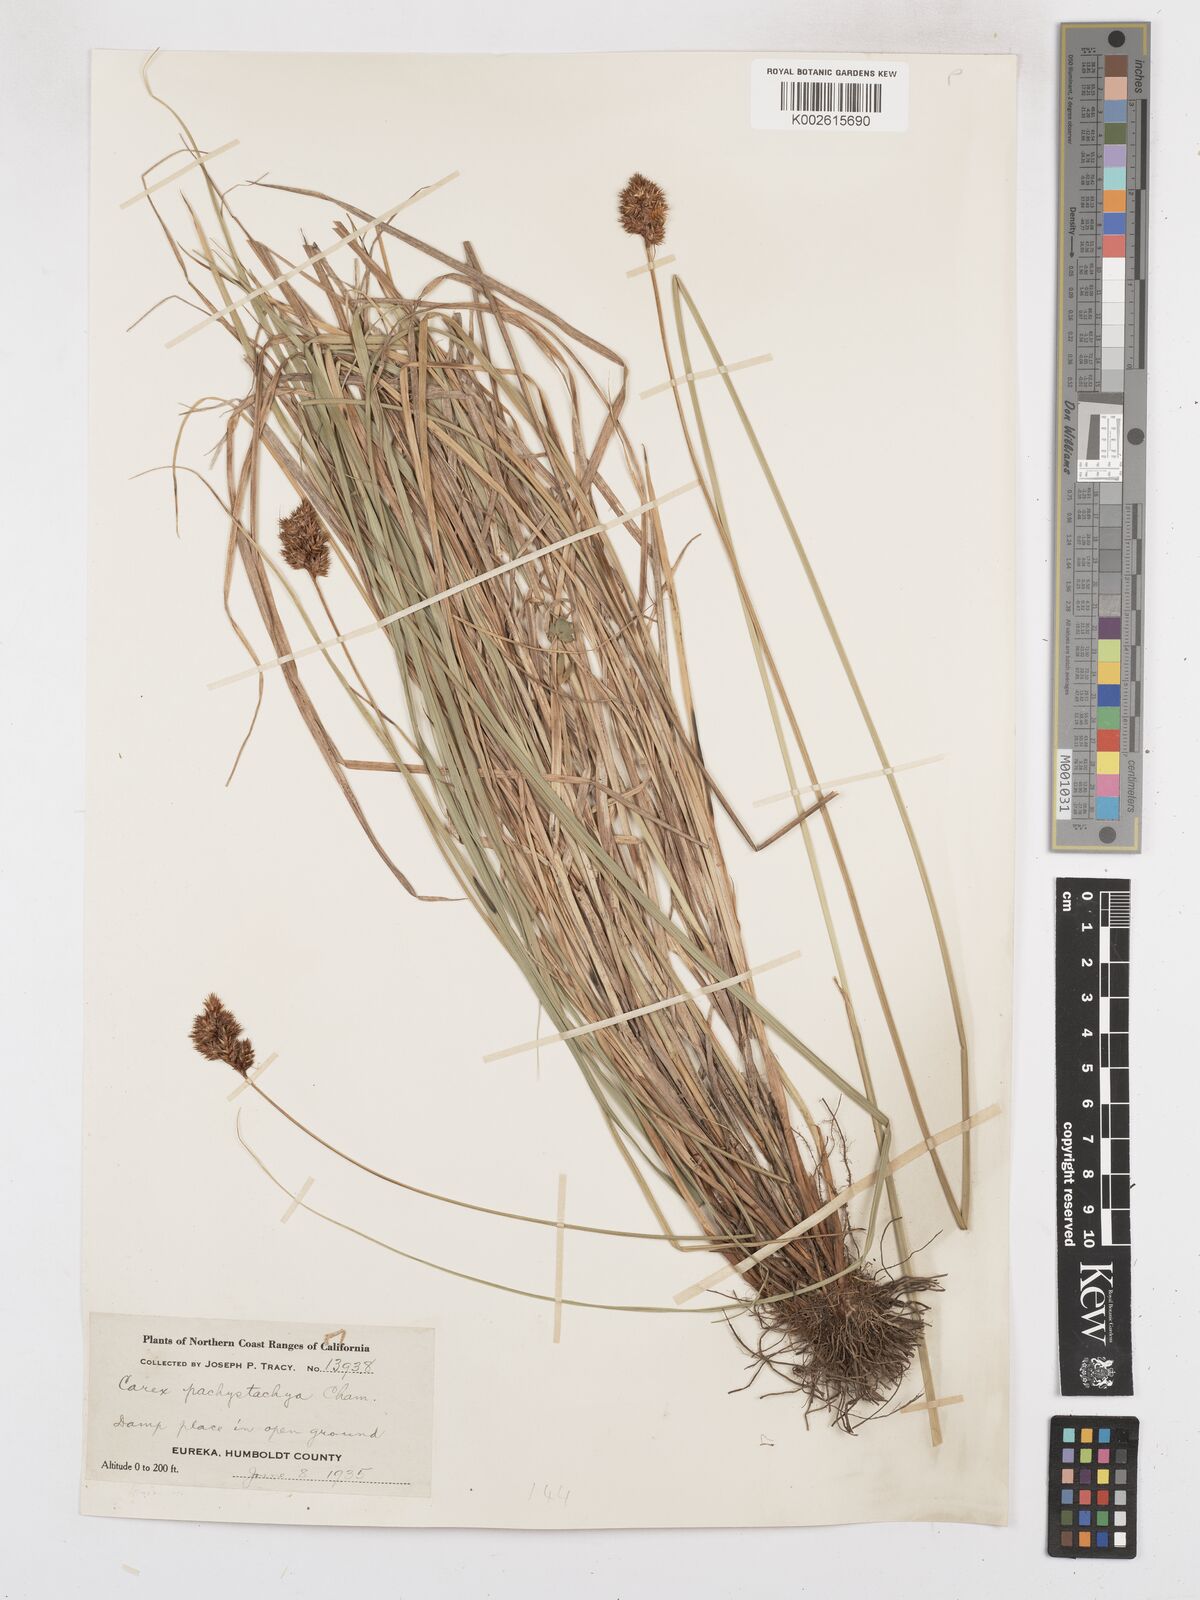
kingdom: Plantae
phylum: Tracheophyta
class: Liliopsida
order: Poales
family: Cyperaceae
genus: Carex
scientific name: Carex pachystachya
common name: Chamisso's sedge
